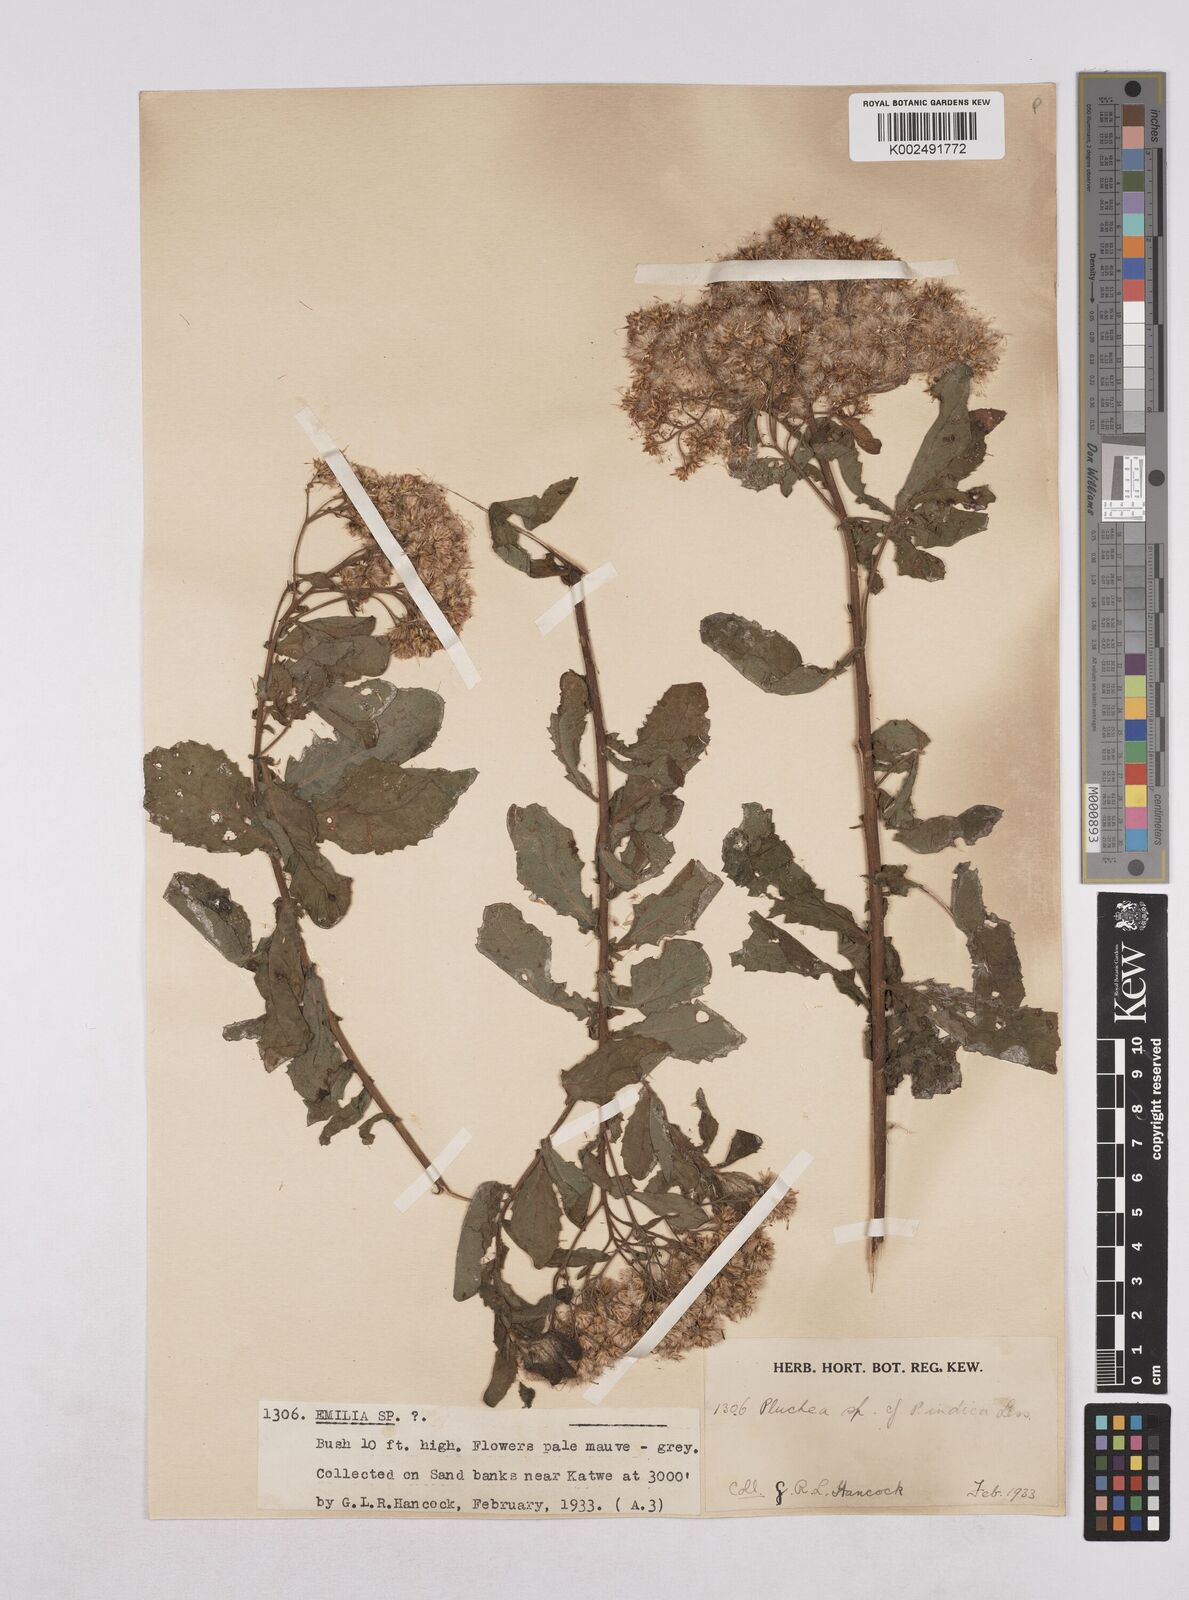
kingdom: Plantae
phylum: Tracheophyta
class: Magnoliopsida
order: Asterales
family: Asteraceae
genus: Pluchea
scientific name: Pluchea dioscoridis
